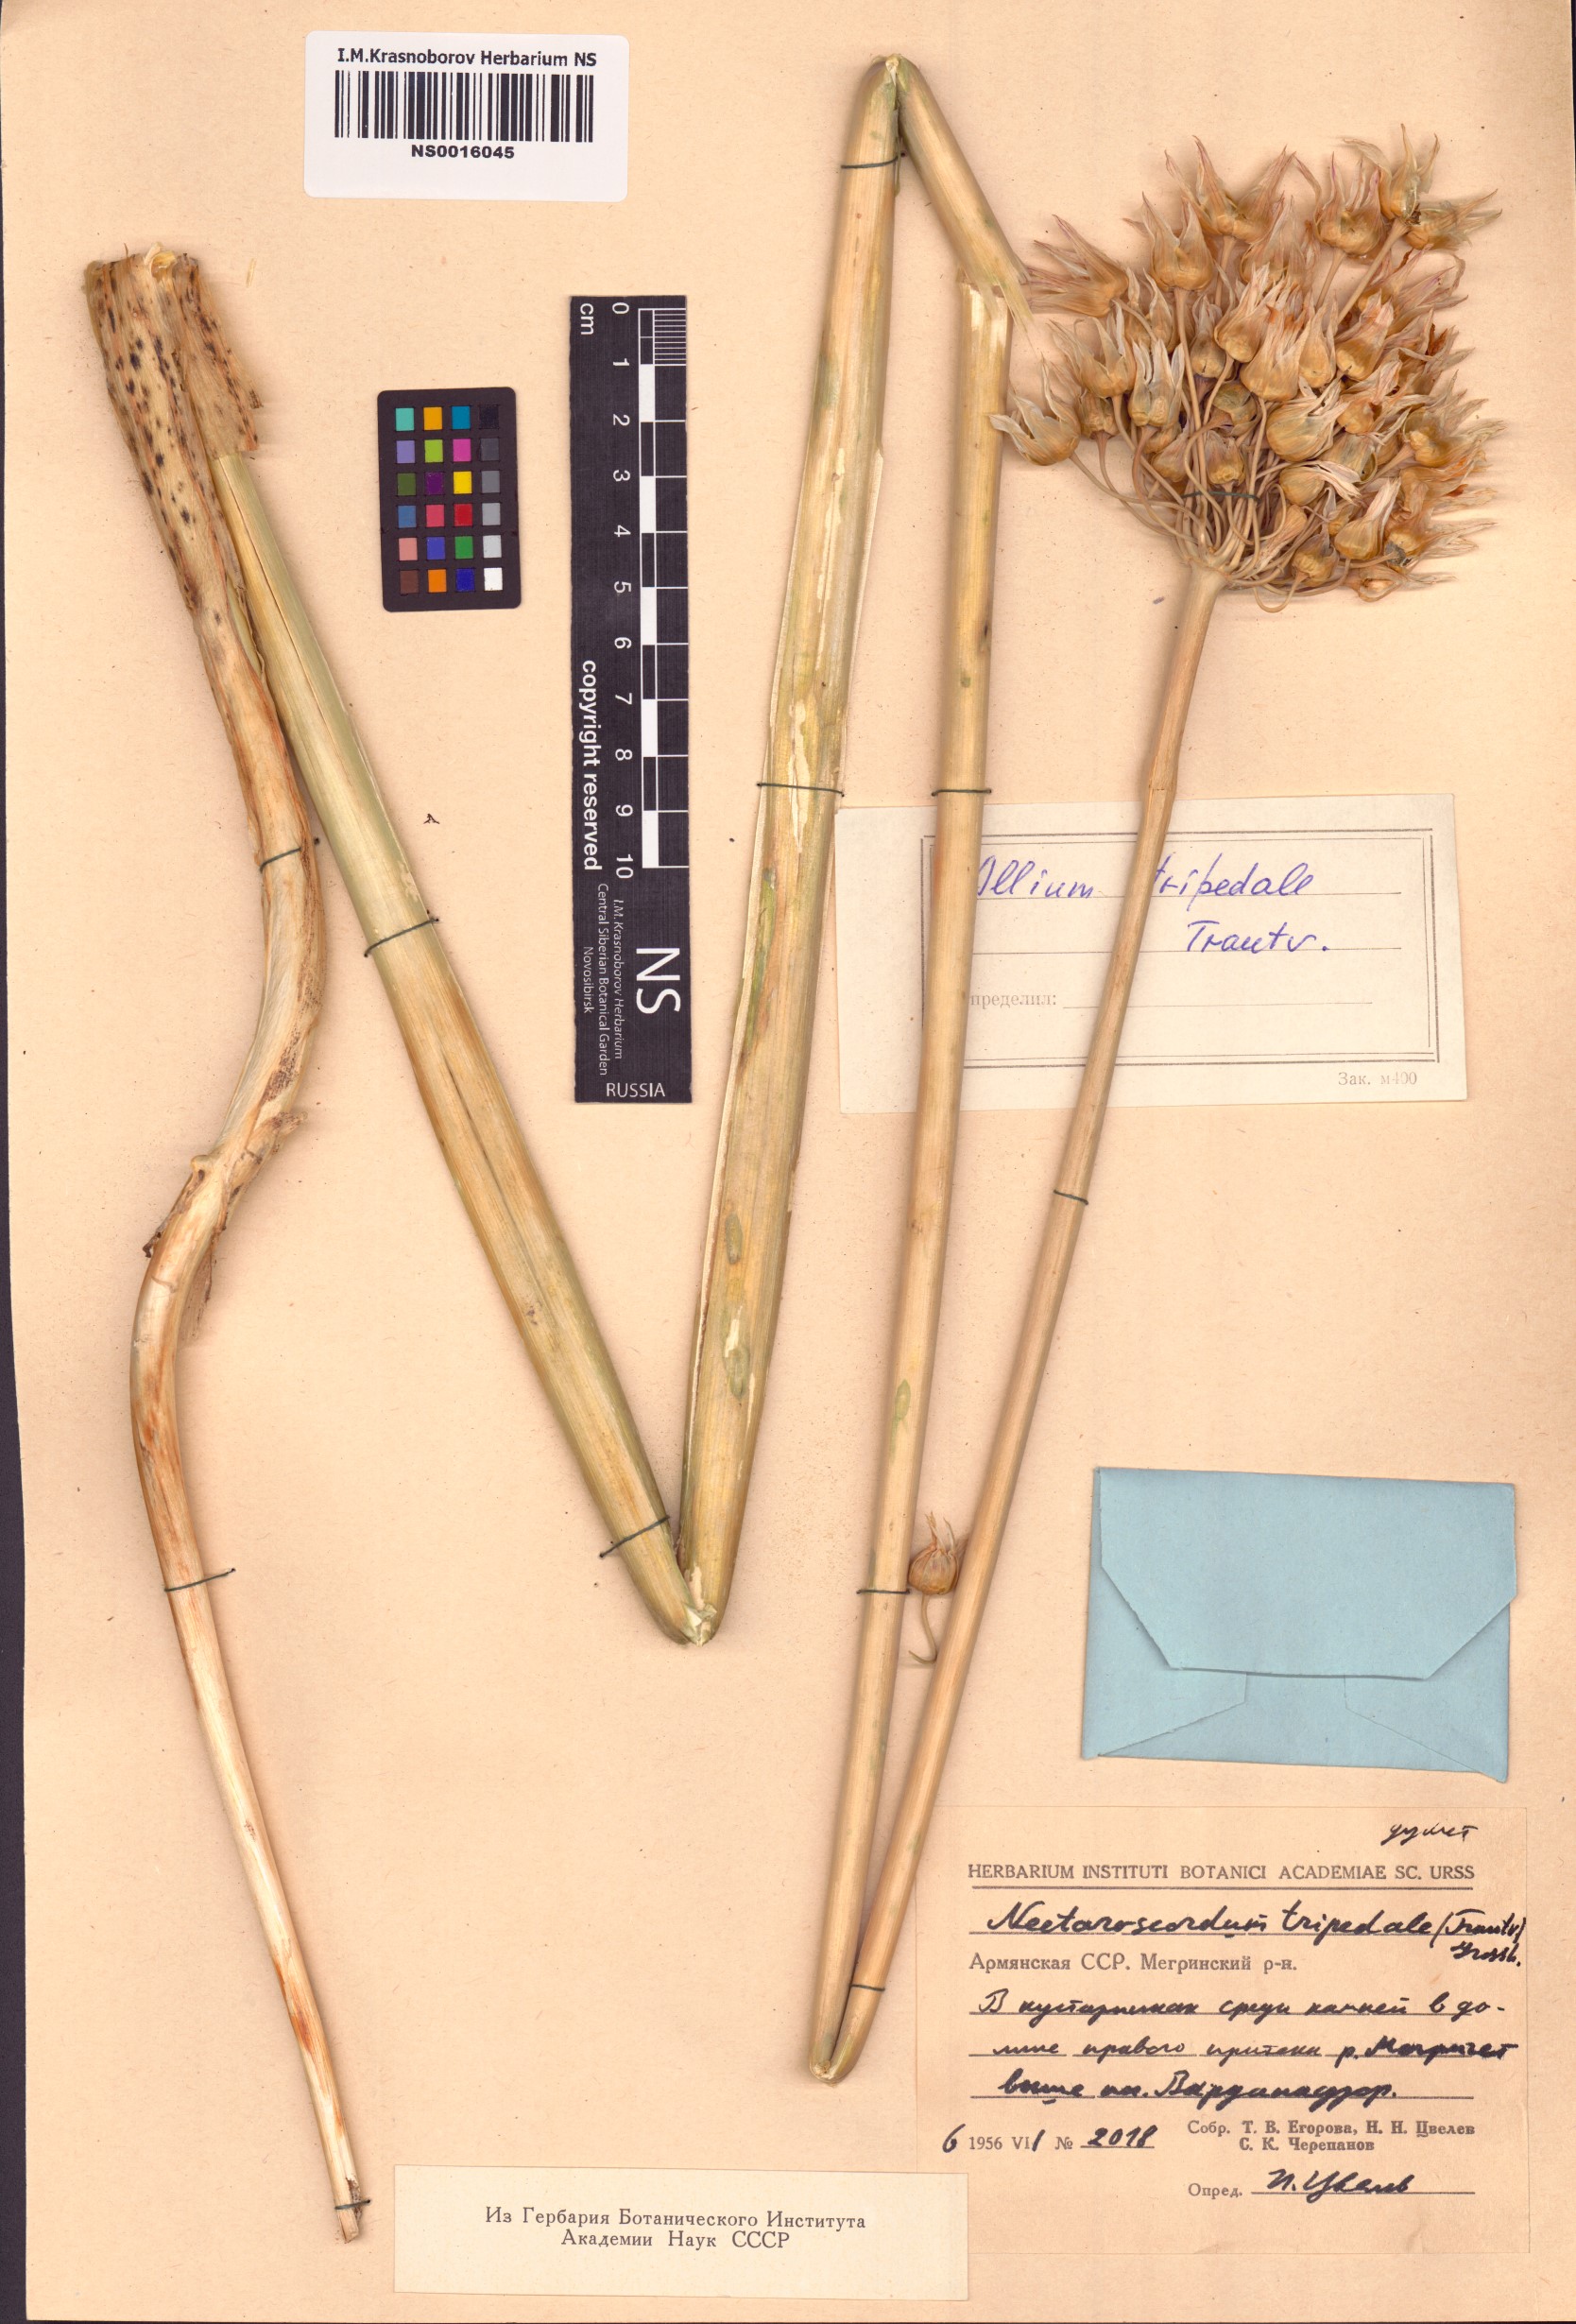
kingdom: Plantae
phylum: Tracheophyta
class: Liliopsida
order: Asparagales
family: Amaryllidaceae
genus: Allium
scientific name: Allium tripedale
